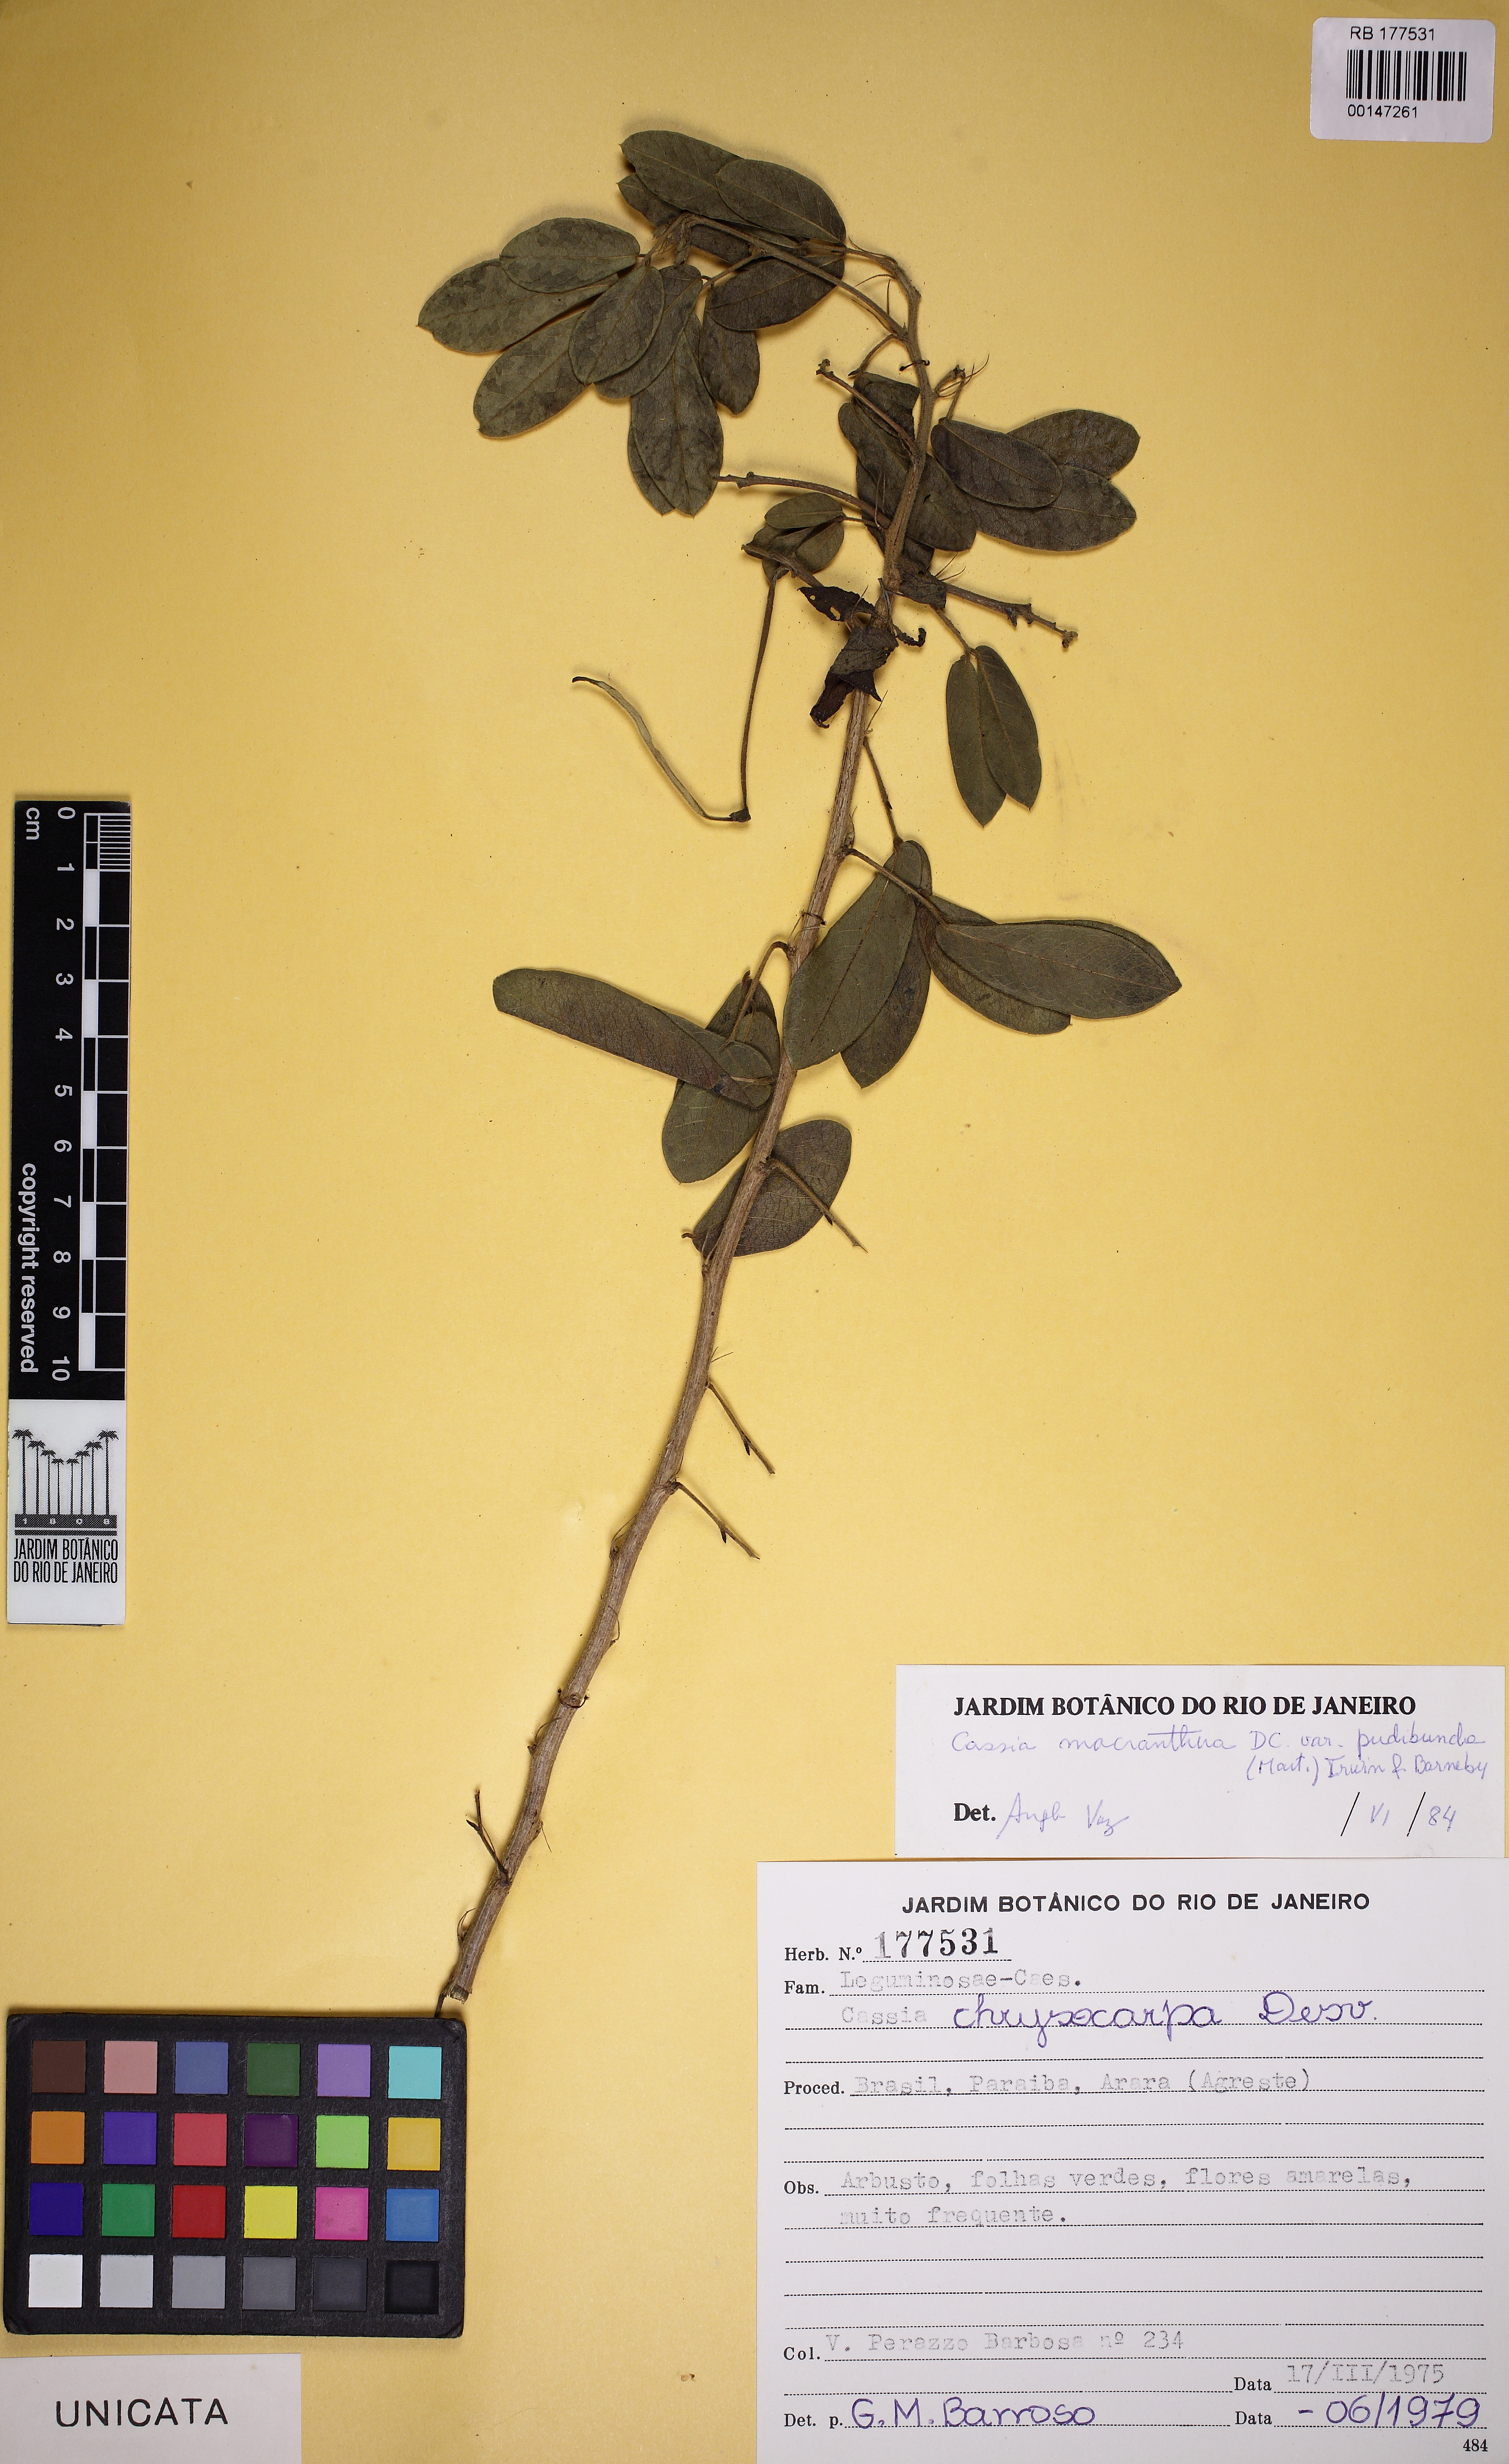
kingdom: Plantae
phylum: Tracheophyta
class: Magnoliopsida
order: Fabales
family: Fabaceae
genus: Senna
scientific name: Senna macranthera
